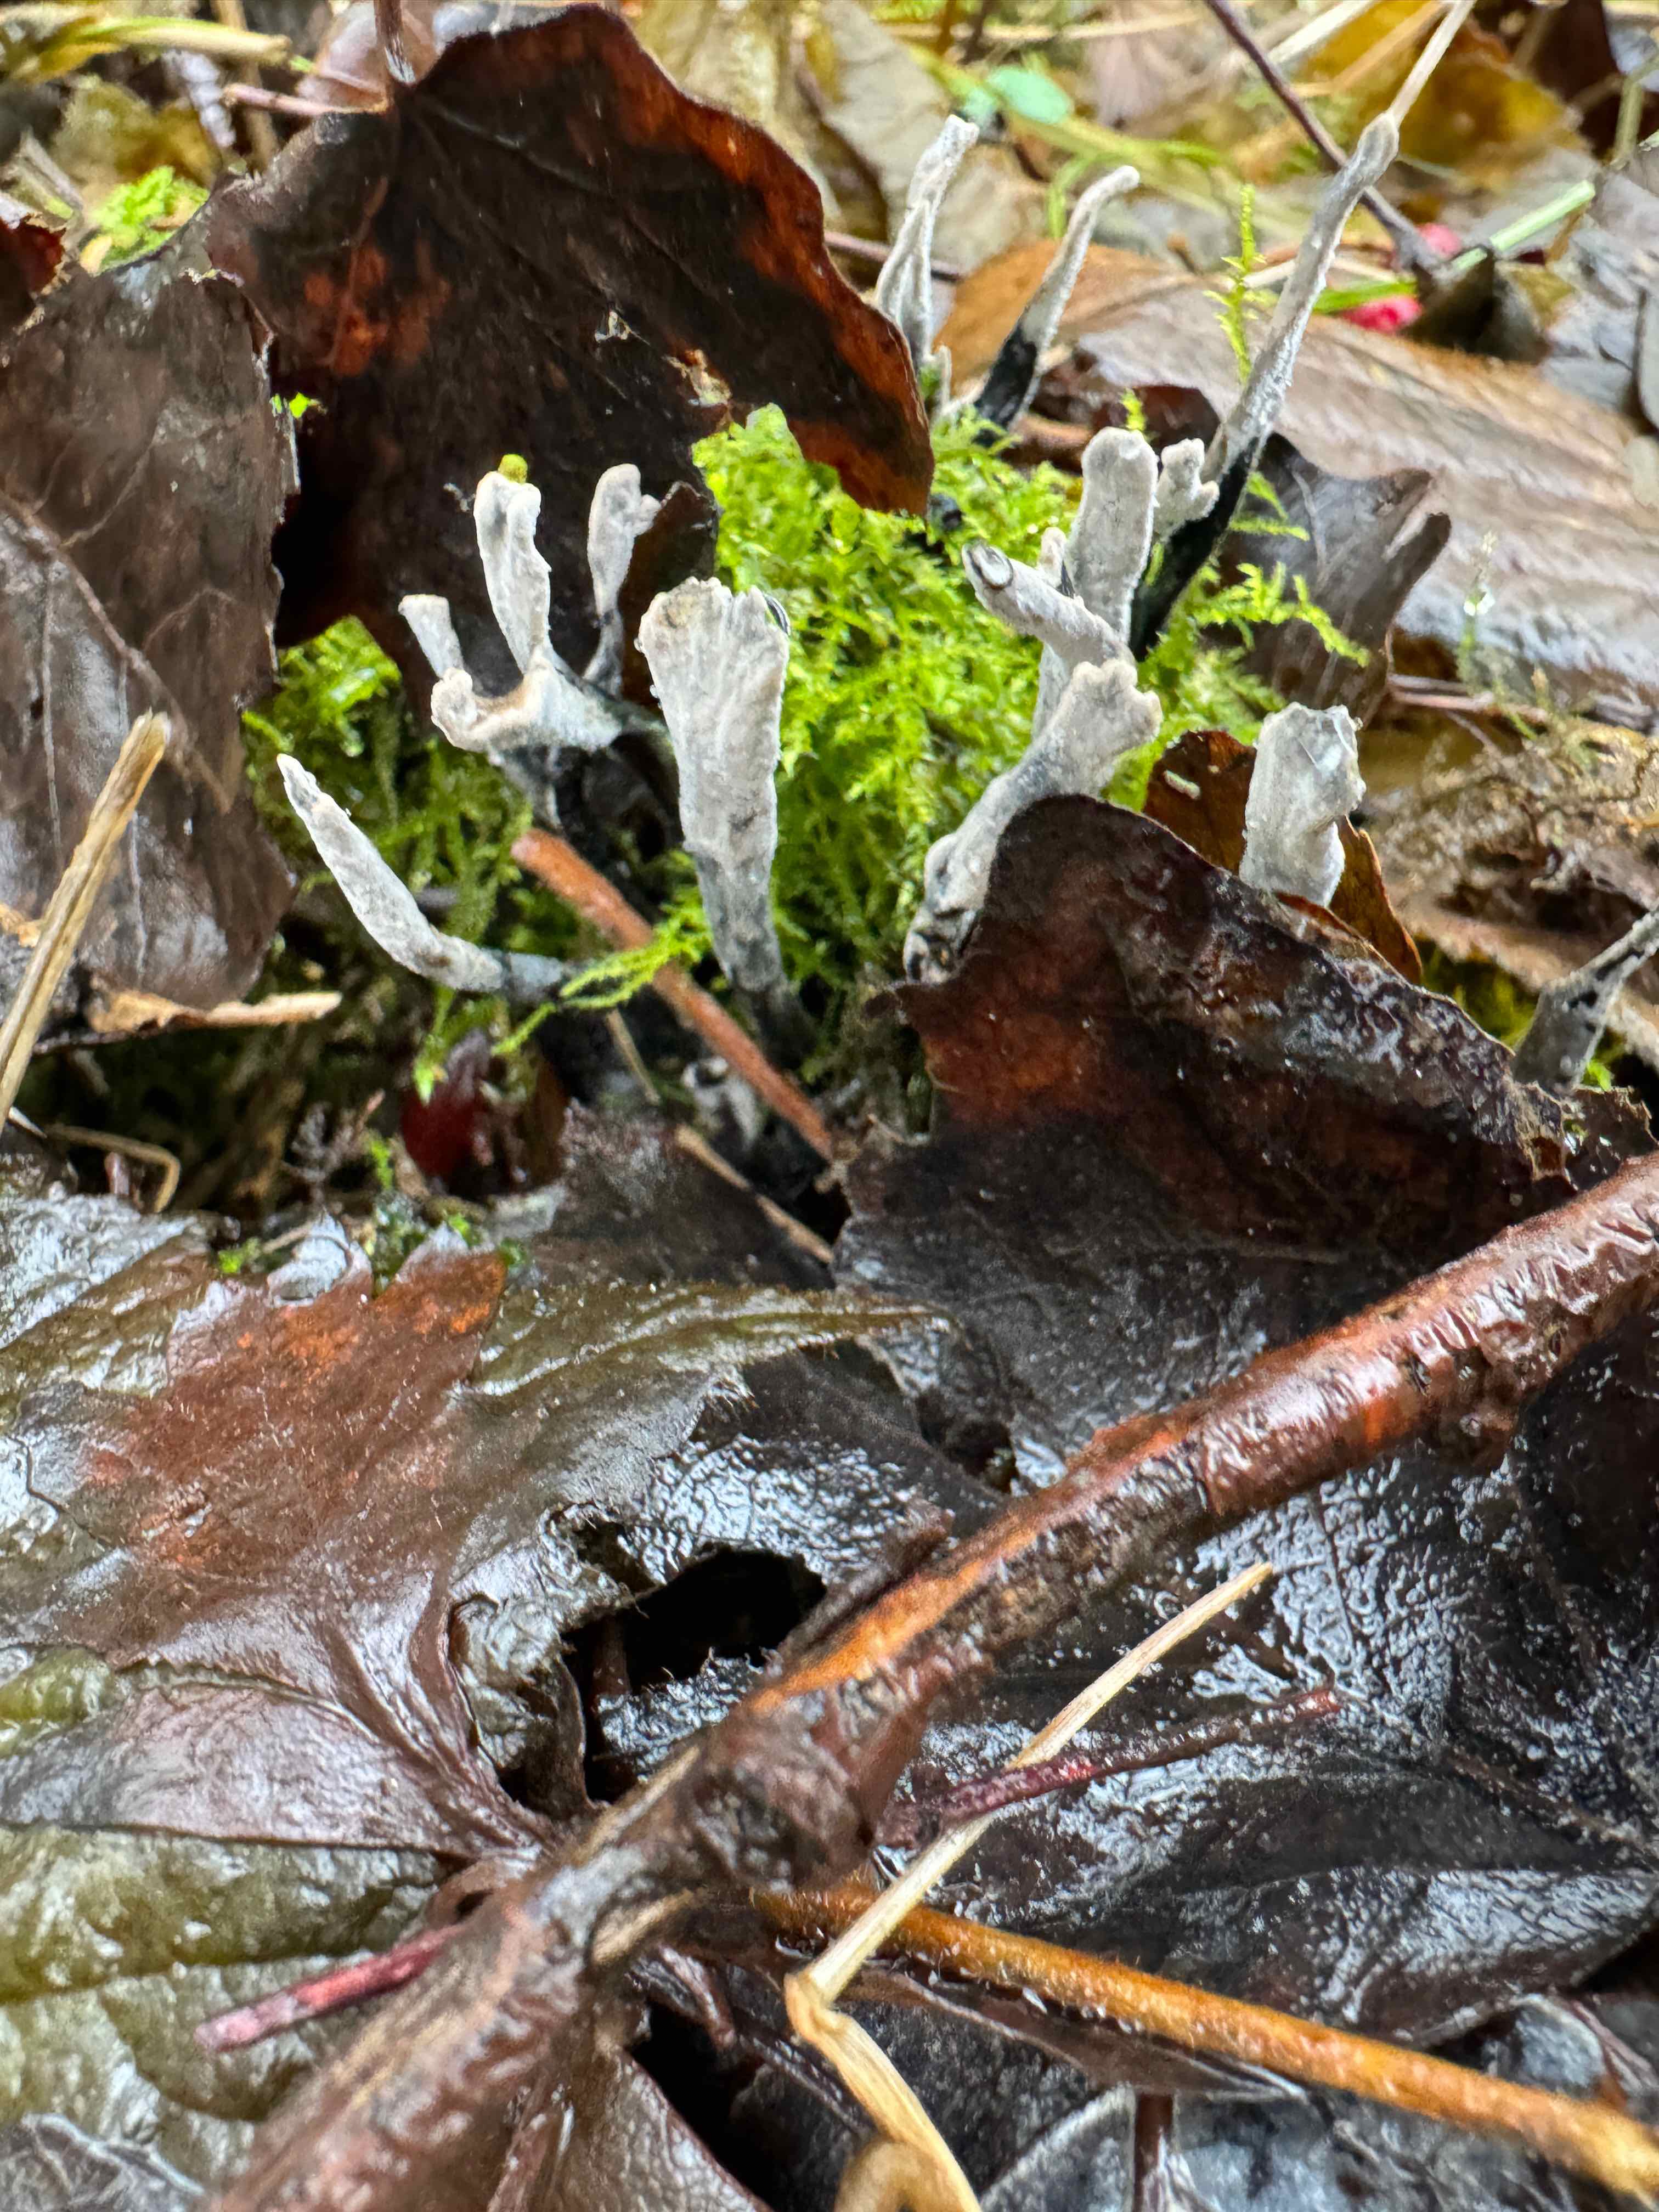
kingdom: Fungi
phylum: Ascomycota
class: Sordariomycetes
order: Xylariales
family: Xylariaceae
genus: Xylaria
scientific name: Xylaria hypoxylon
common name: grenet stødsvamp
